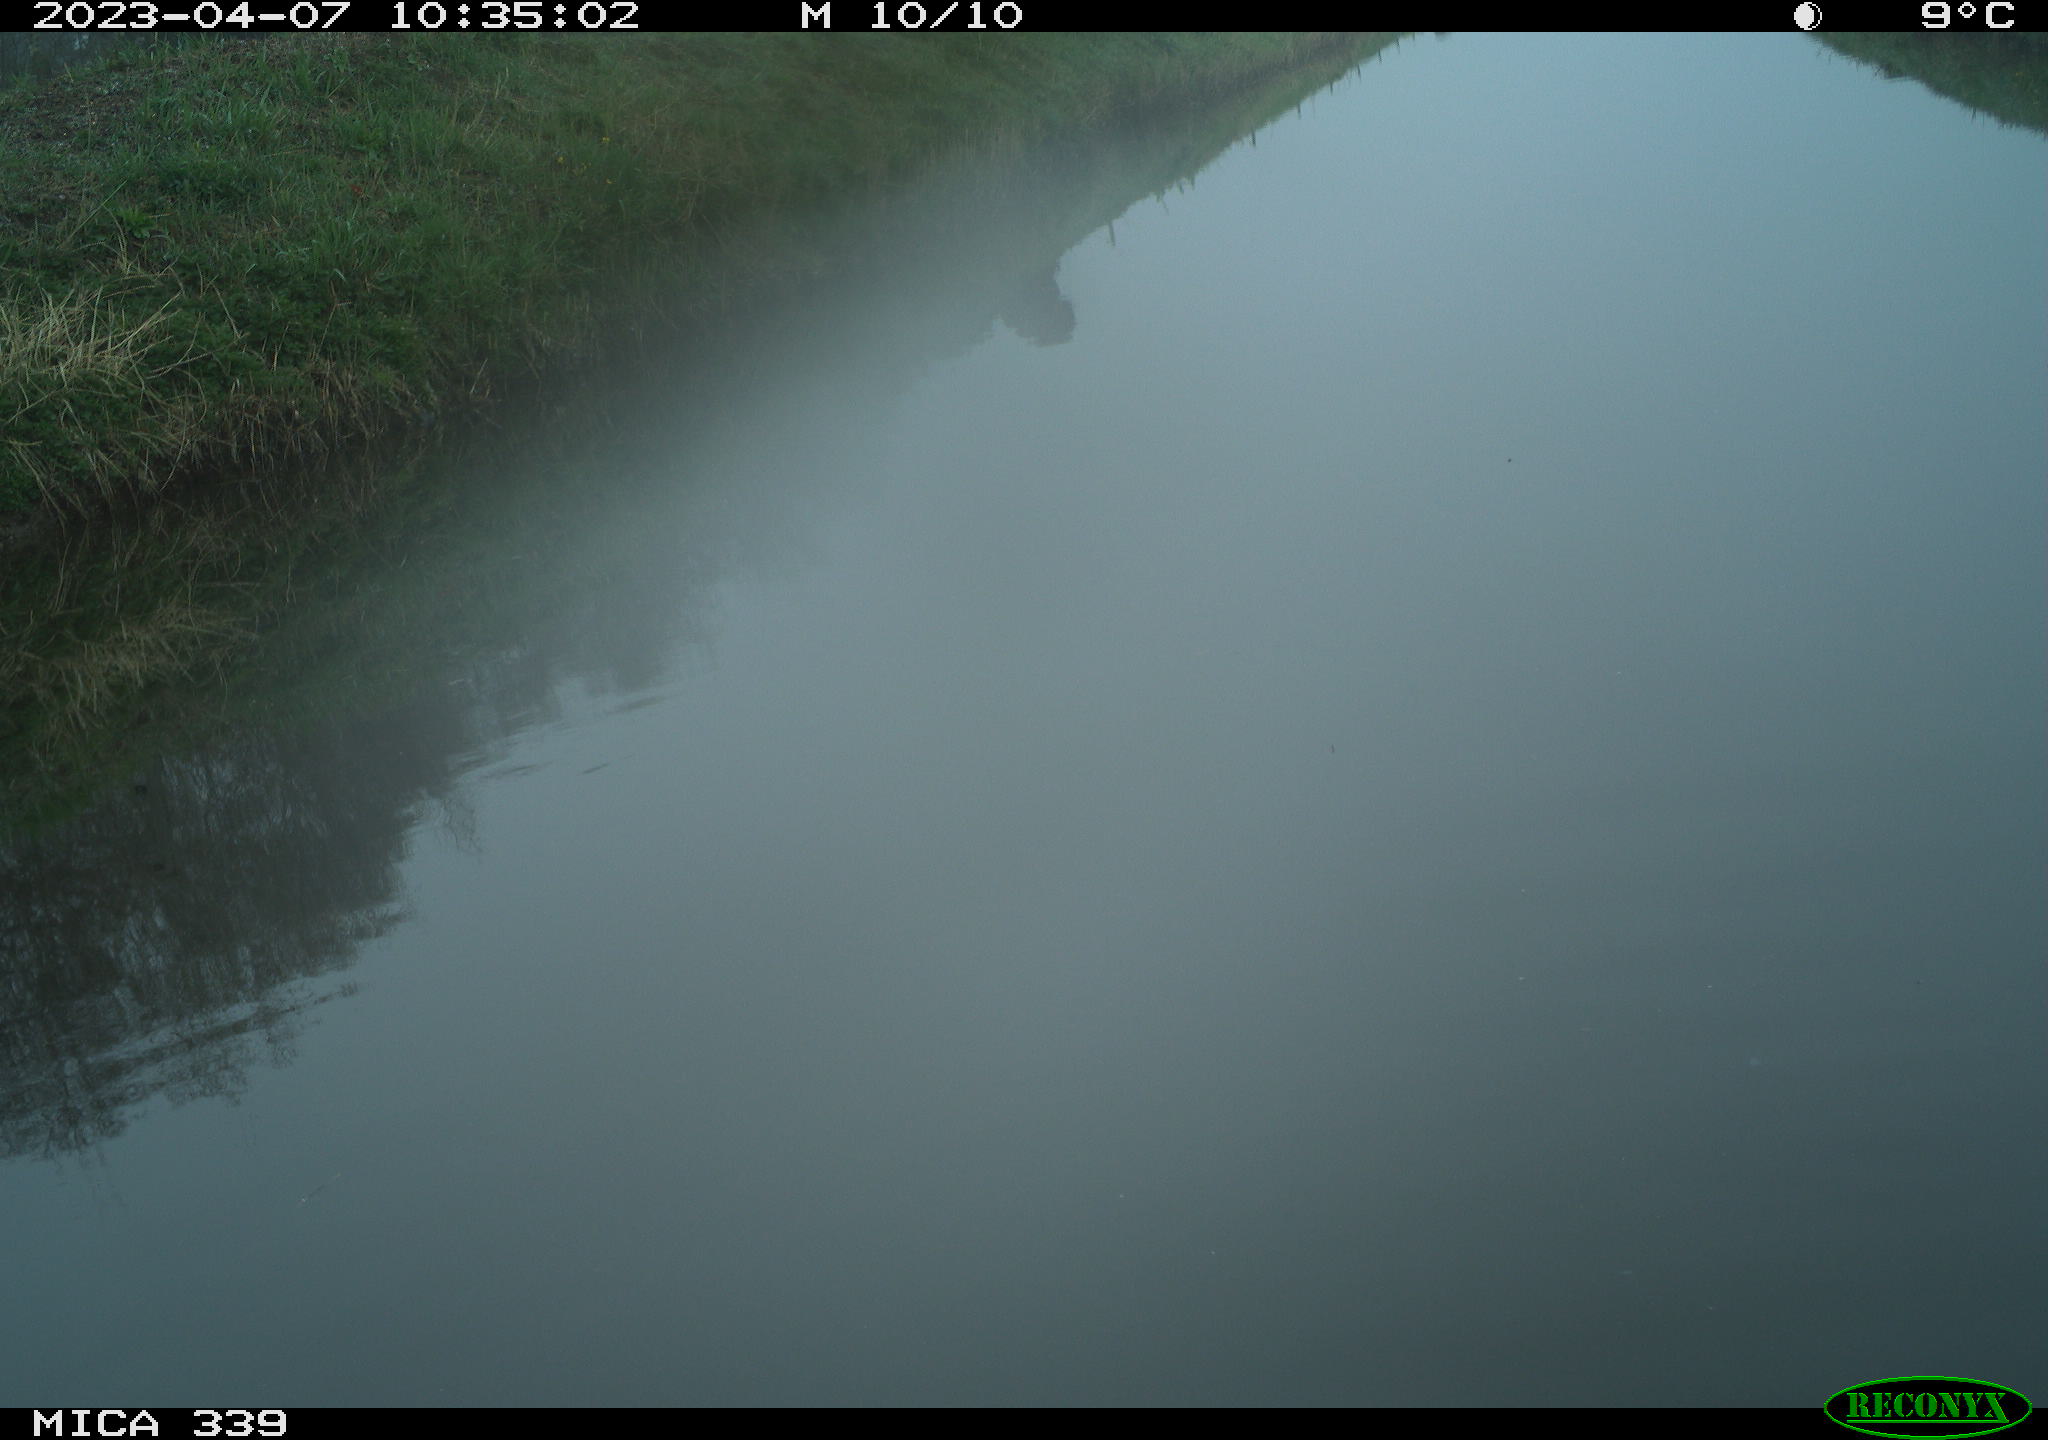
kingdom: Animalia
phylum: Chordata
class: Aves
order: Pelecaniformes
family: Ardeidae
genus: Ardea
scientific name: Ardea cinerea
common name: Grey heron
